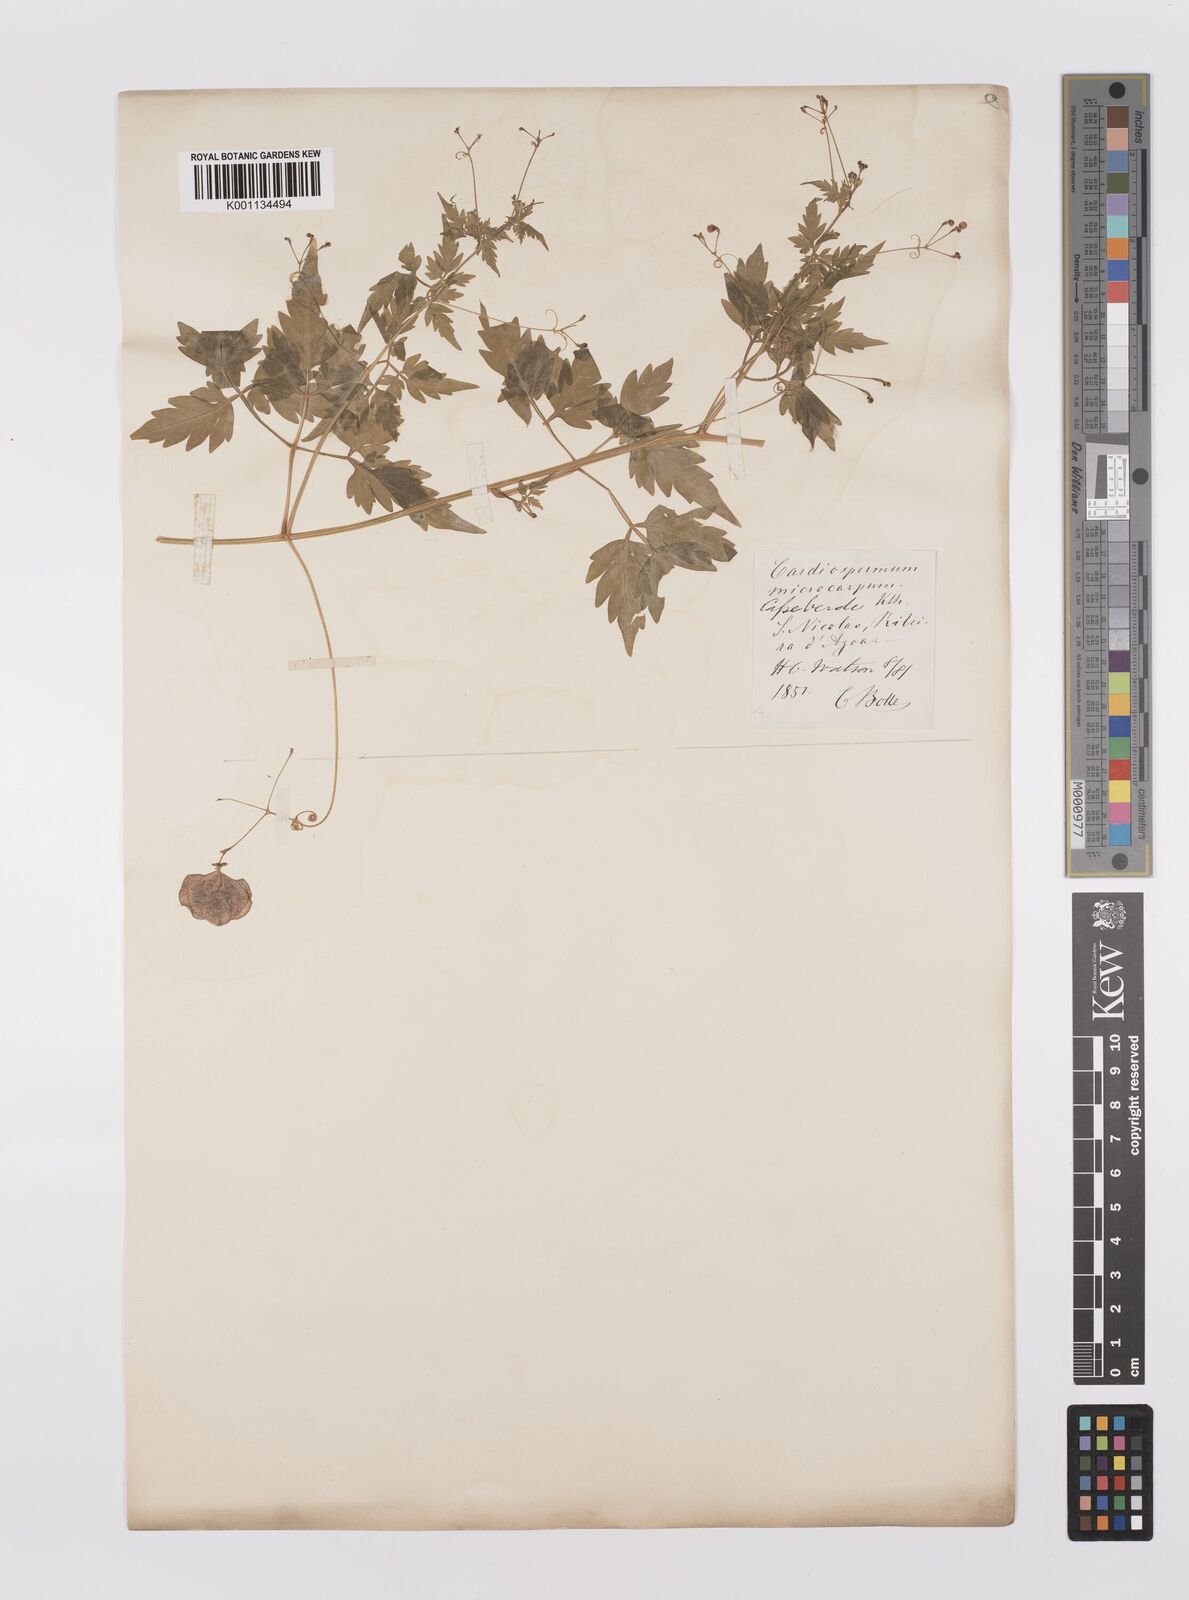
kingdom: Plantae
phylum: Tracheophyta
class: Magnoliopsida
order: Sapindales
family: Sapindaceae
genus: Cardiospermum
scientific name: Cardiospermum microcarpum
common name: Heart seed
